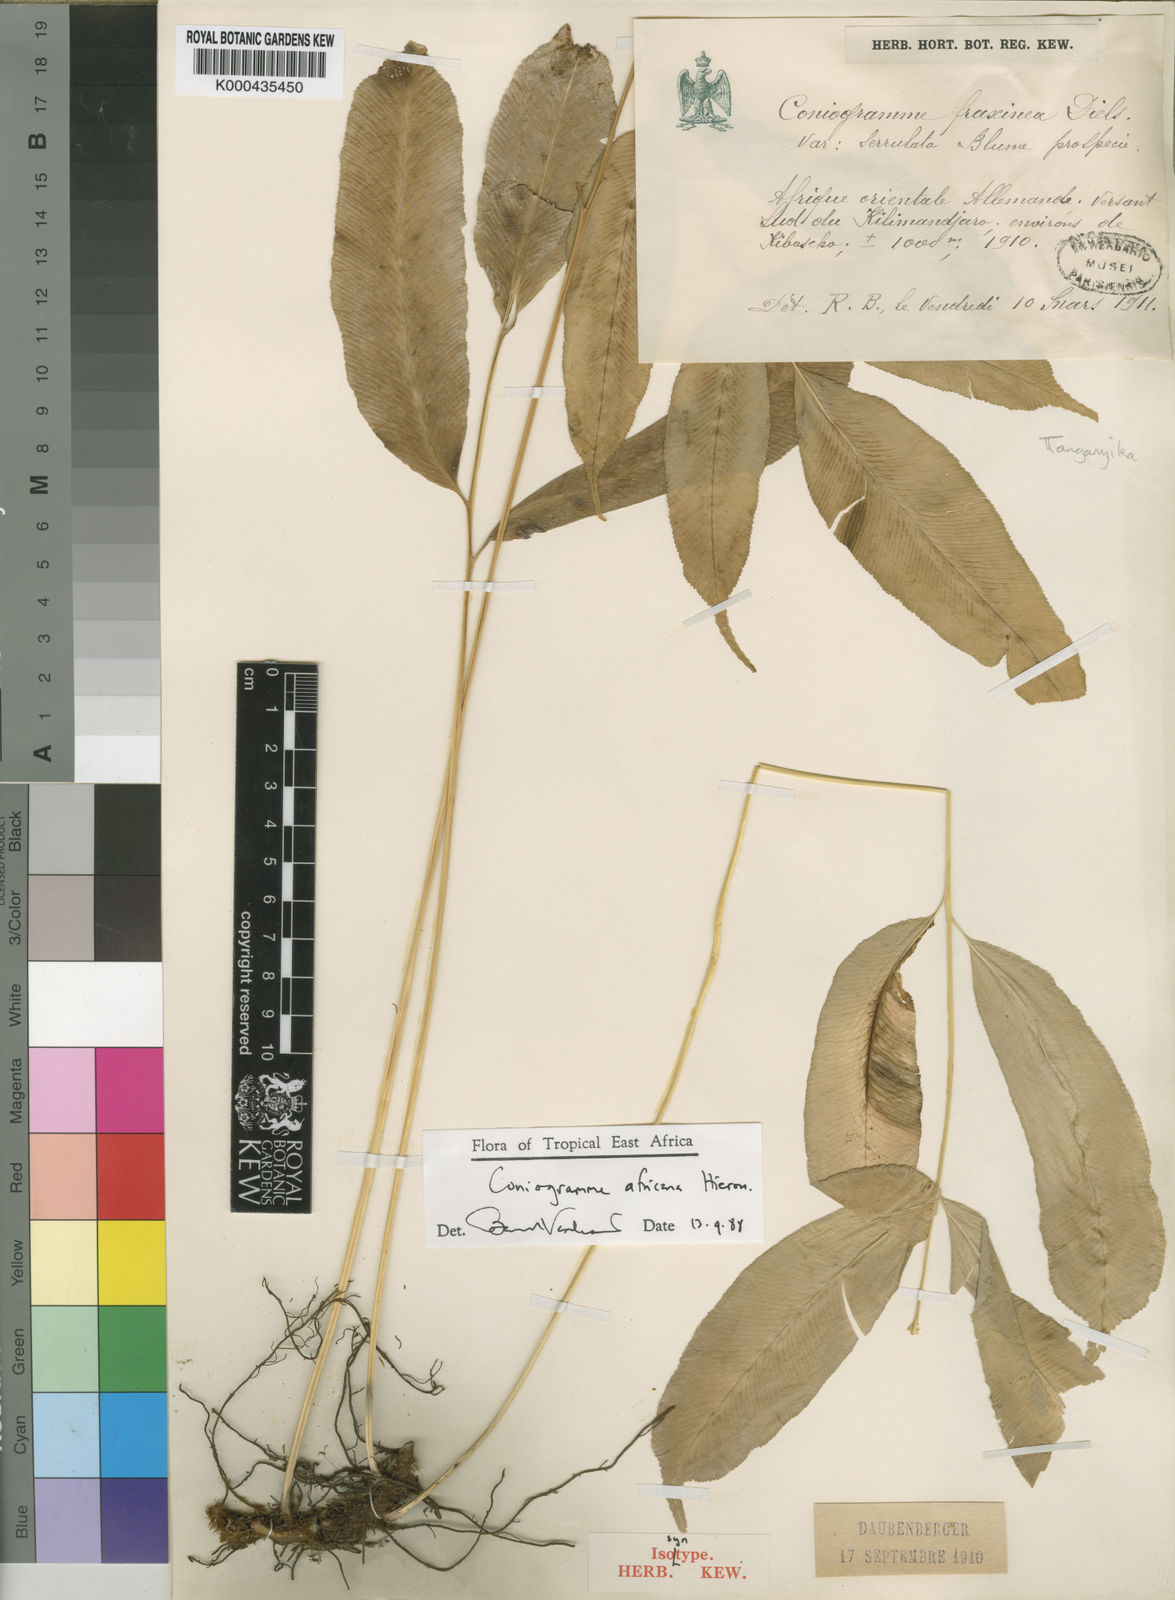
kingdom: Plantae
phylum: Tracheophyta
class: Polypodiopsida
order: Polypodiales
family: Pteridaceae
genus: Coniogramme
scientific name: Coniogramme africana
